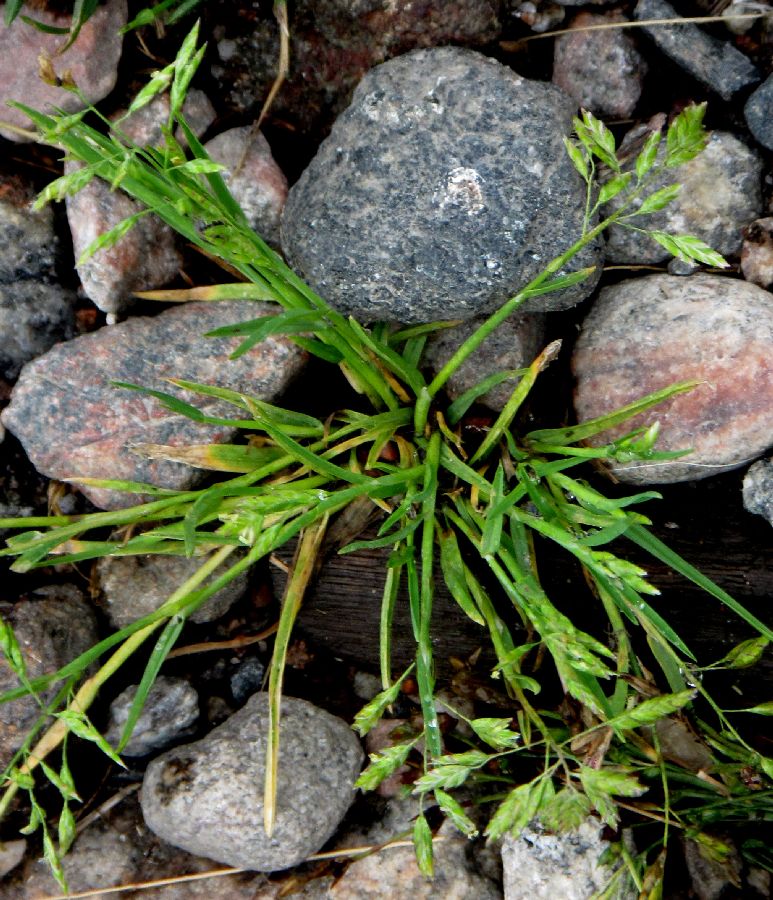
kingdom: Plantae
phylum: Tracheophyta
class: Liliopsida
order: Poales
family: Poaceae
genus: Poa
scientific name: Poa annua
